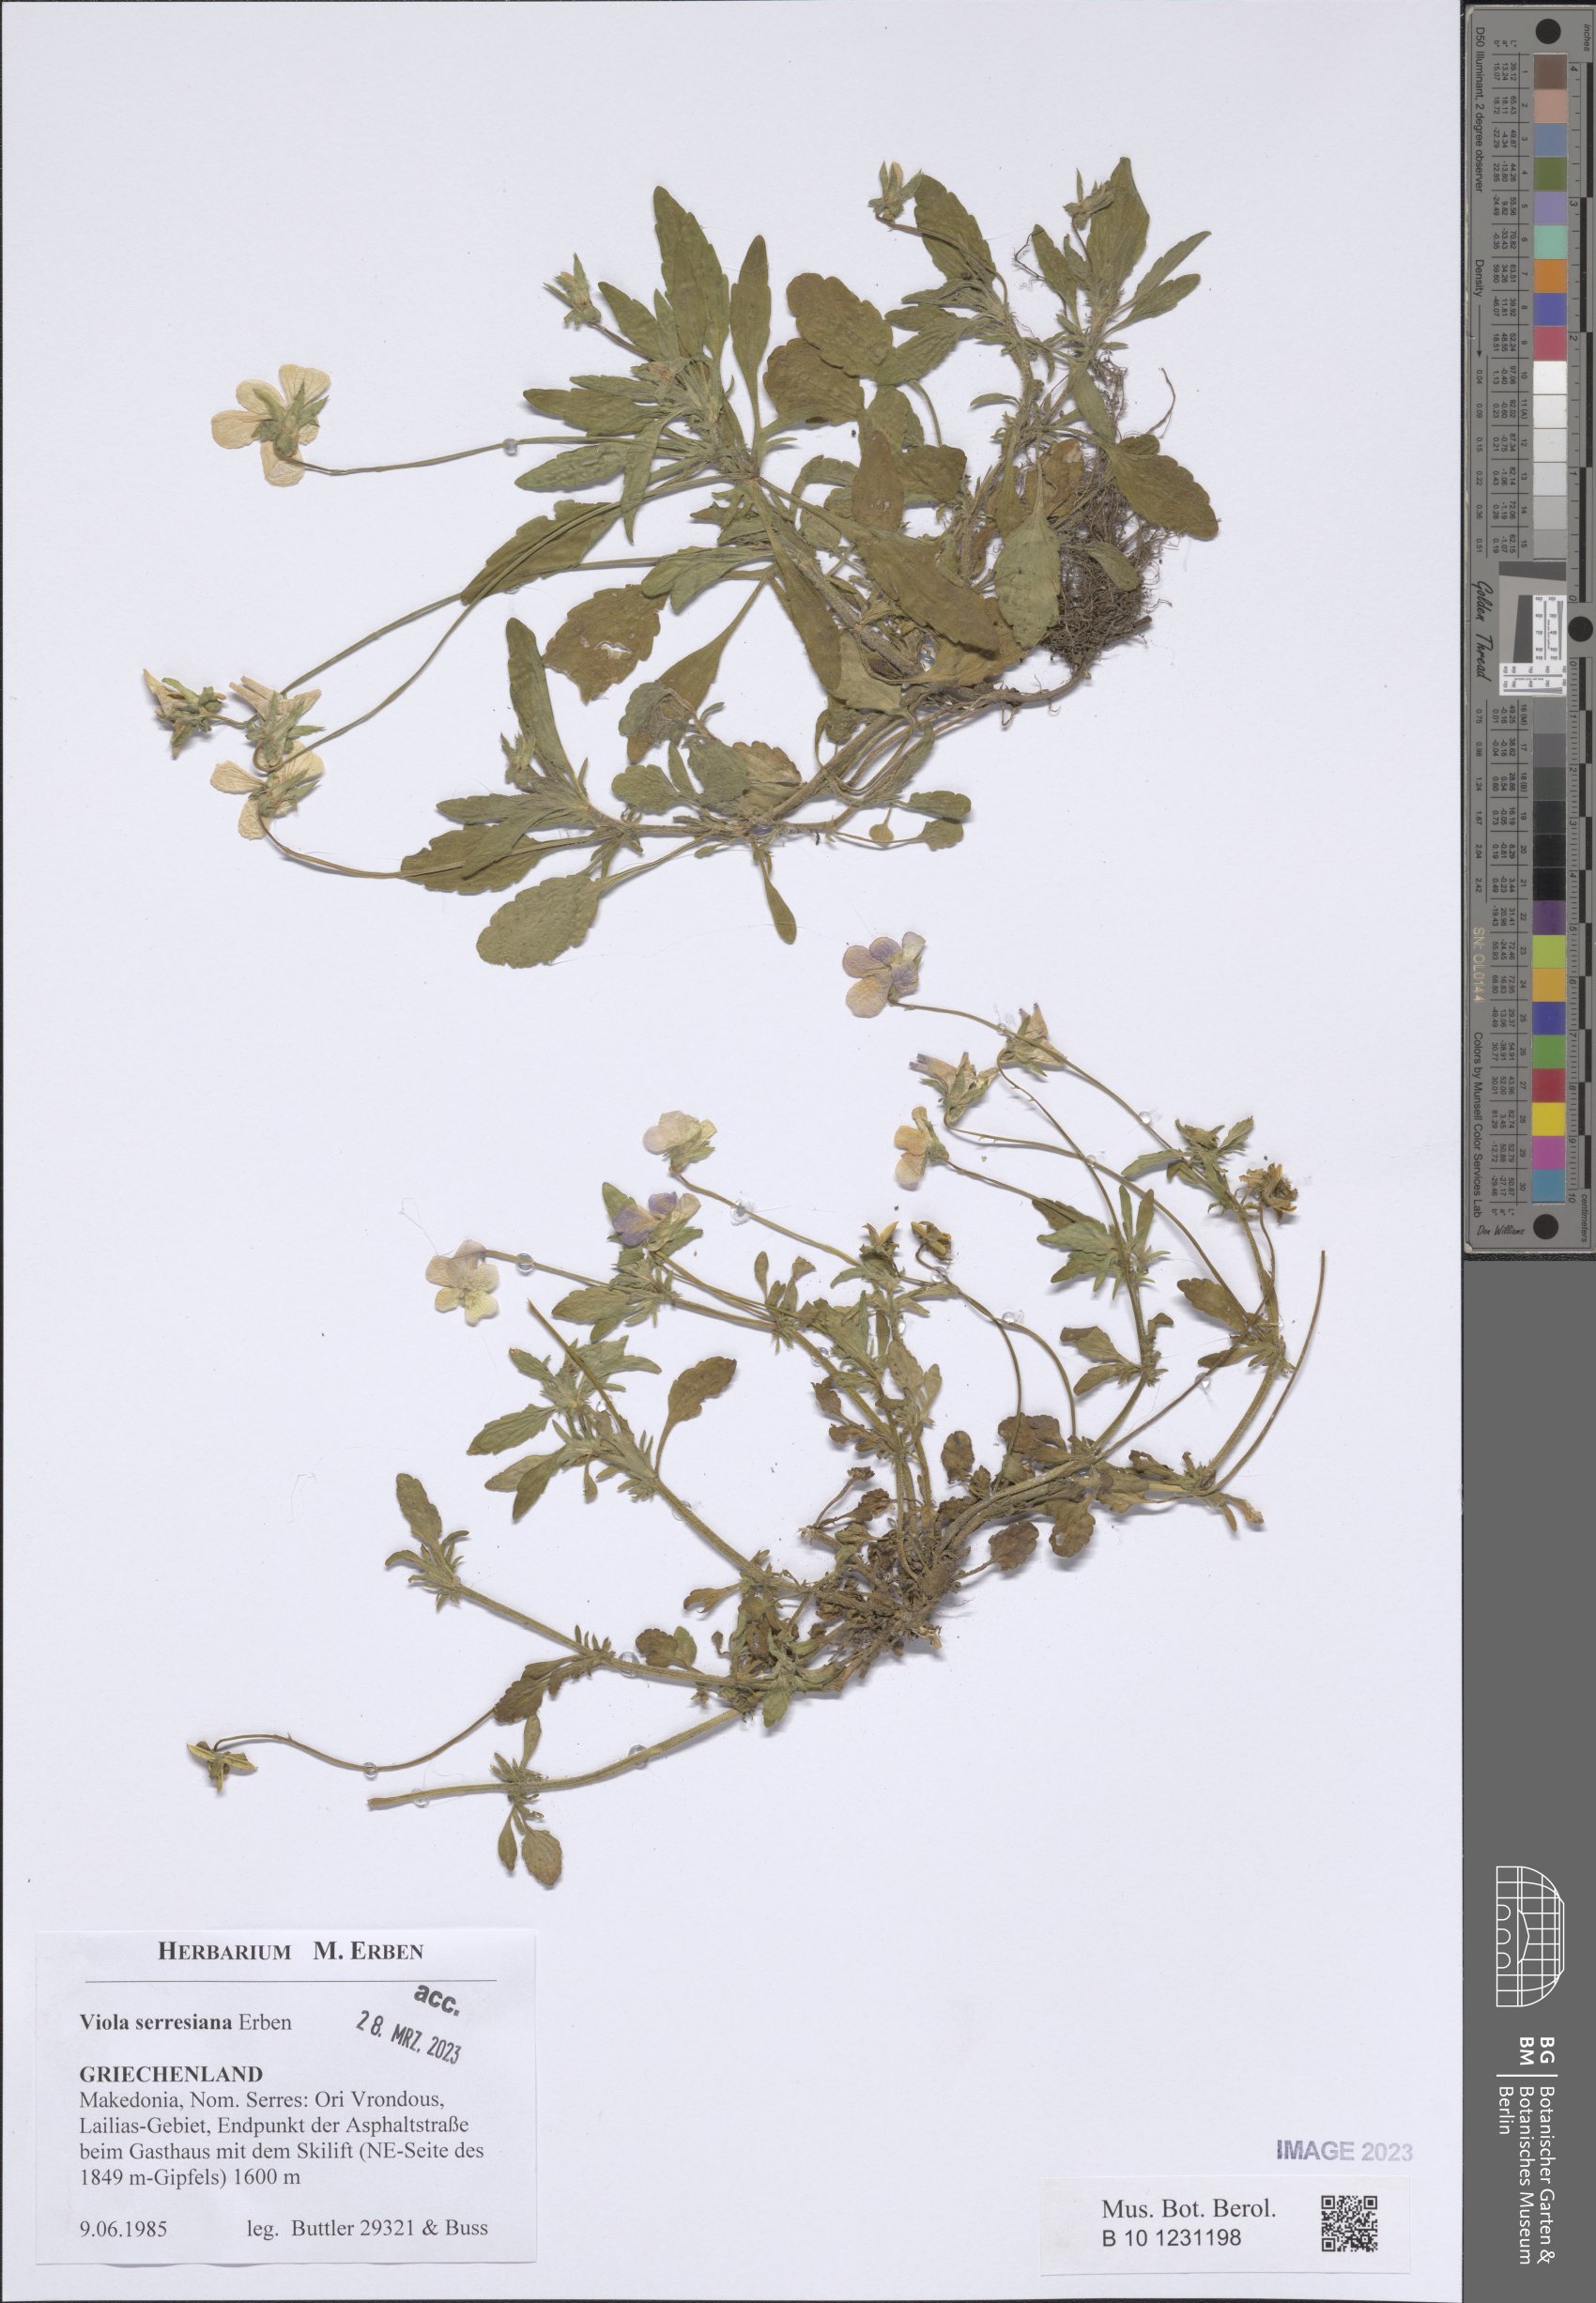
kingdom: Plantae
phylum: Tracheophyta
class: Magnoliopsida
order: Malpighiales
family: Violaceae
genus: Viola
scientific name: Viola serresiana
